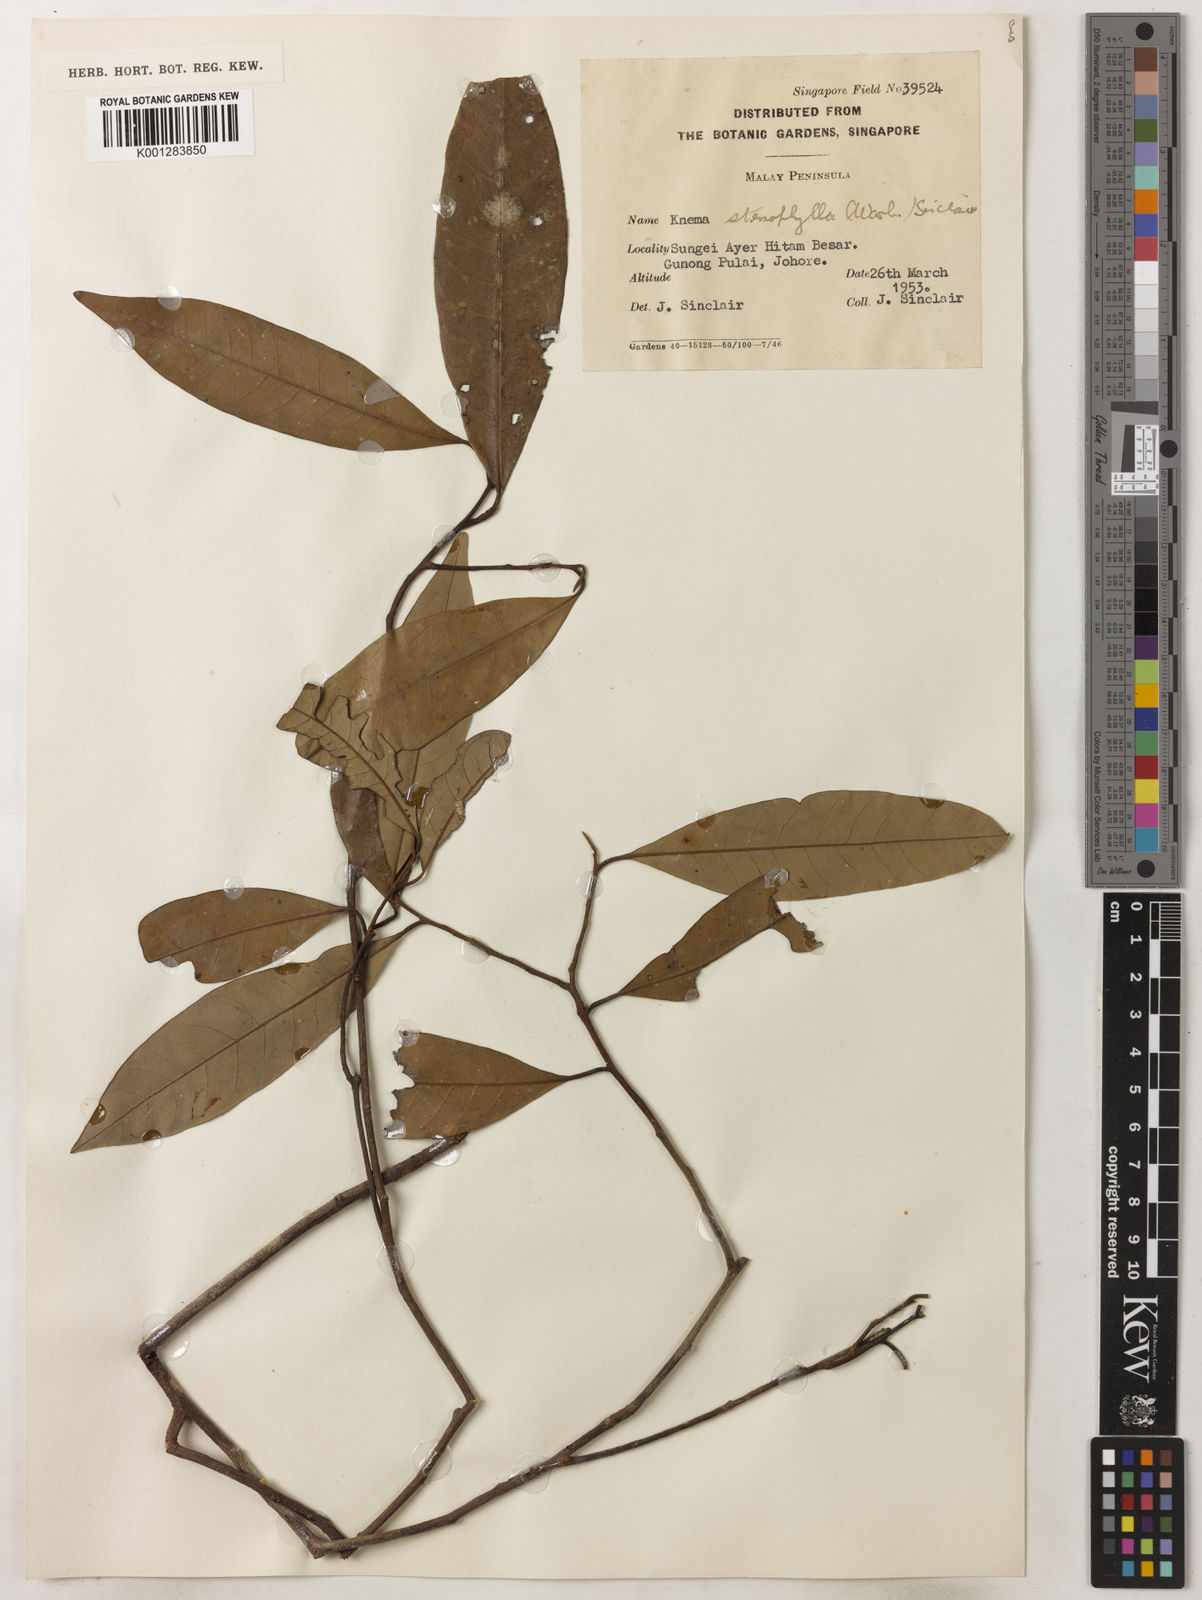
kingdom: Plantae
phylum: Tracheophyta
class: Magnoliopsida
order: Magnoliales
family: Myristicaceae
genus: Knema
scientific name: Knema stenophylla
